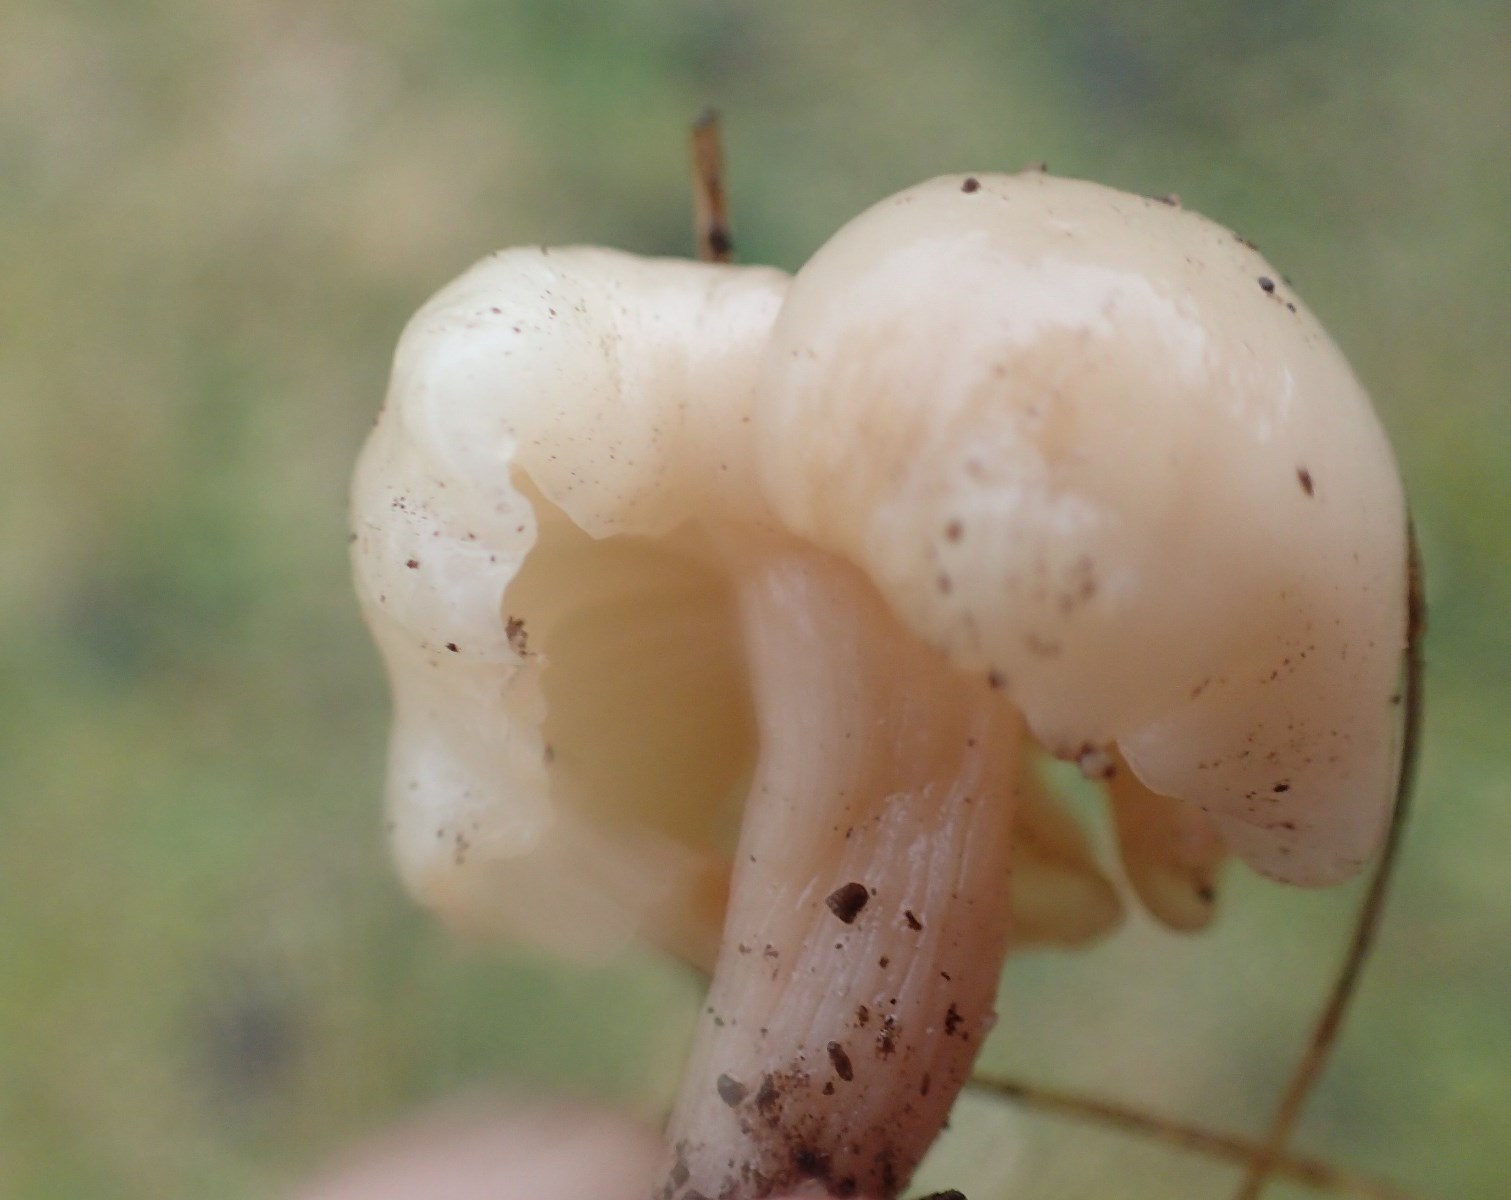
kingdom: Fungi
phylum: Basidiomycota
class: Agaricomycetes
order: Agaricales
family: Hygrophoraceae
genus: Cuphophyllus
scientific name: Cuphophyllus
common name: vokshat
